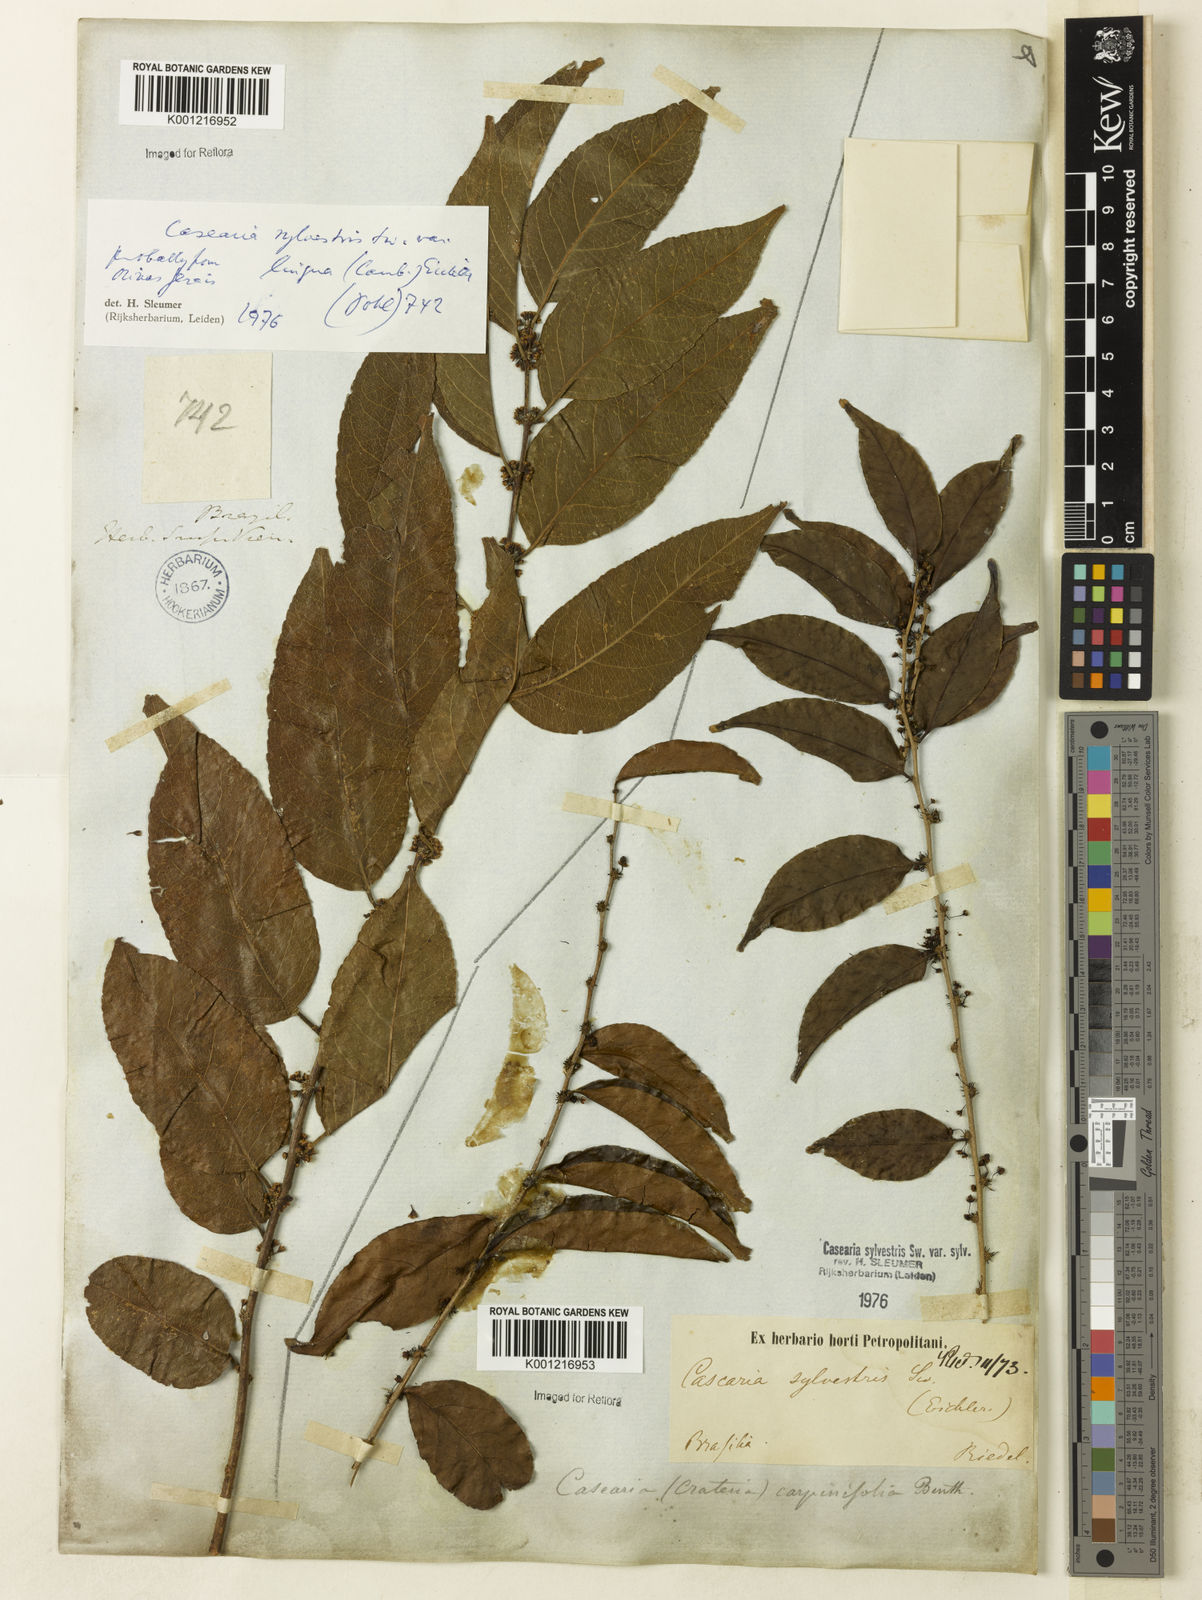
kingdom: Plantae
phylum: Tracheophyta
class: Magnoliopsida
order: Malpighiales
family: Salicaceae
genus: Casearia
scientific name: Casearia sylvestris
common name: Wild sage
